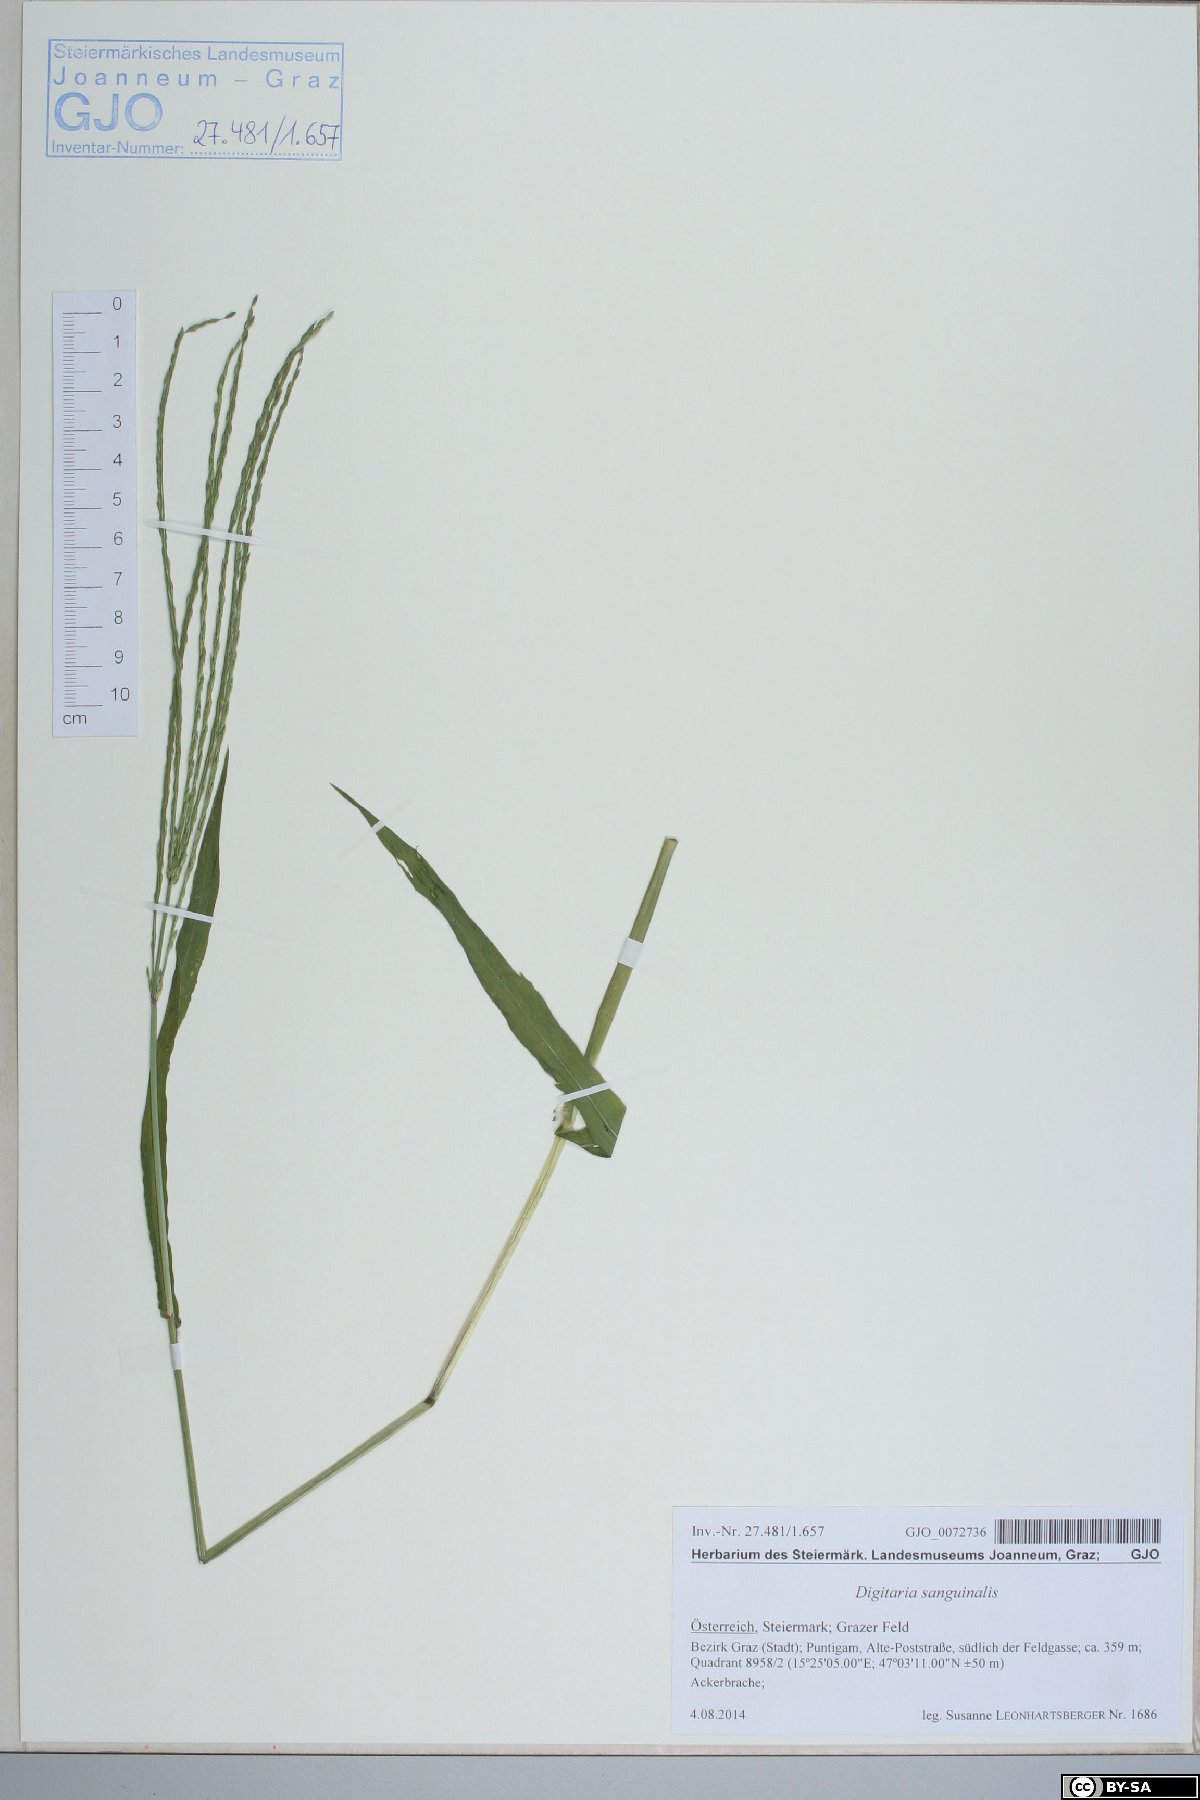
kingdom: Plantae
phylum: Tracheophyta
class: Liliopsida
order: Poales
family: Poaceae
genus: Digitaria
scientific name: Digitaria sanguinalis
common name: Hairy crabgrass
